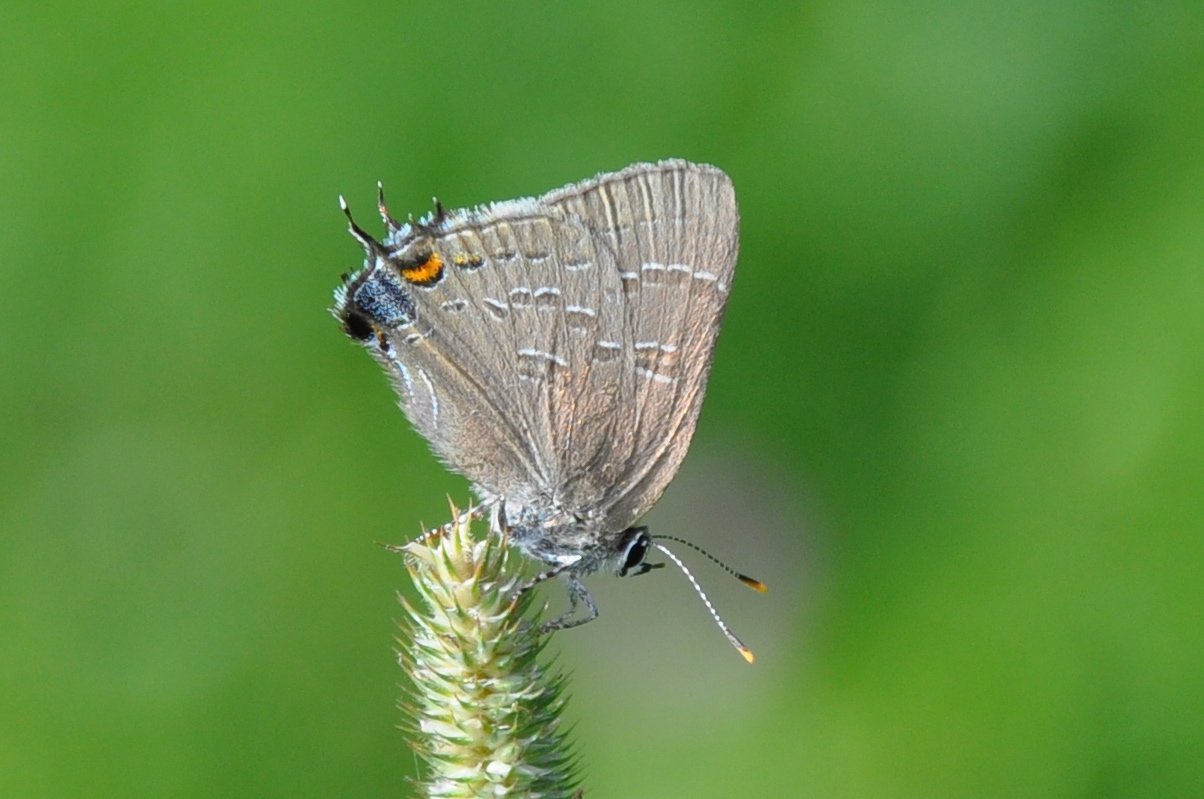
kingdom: Animalia
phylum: Arthropoda
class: Insecta
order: Lepidoptera
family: Lycaenidae
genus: Satyrium
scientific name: Satyrium calanus
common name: Banded Hairstreak
